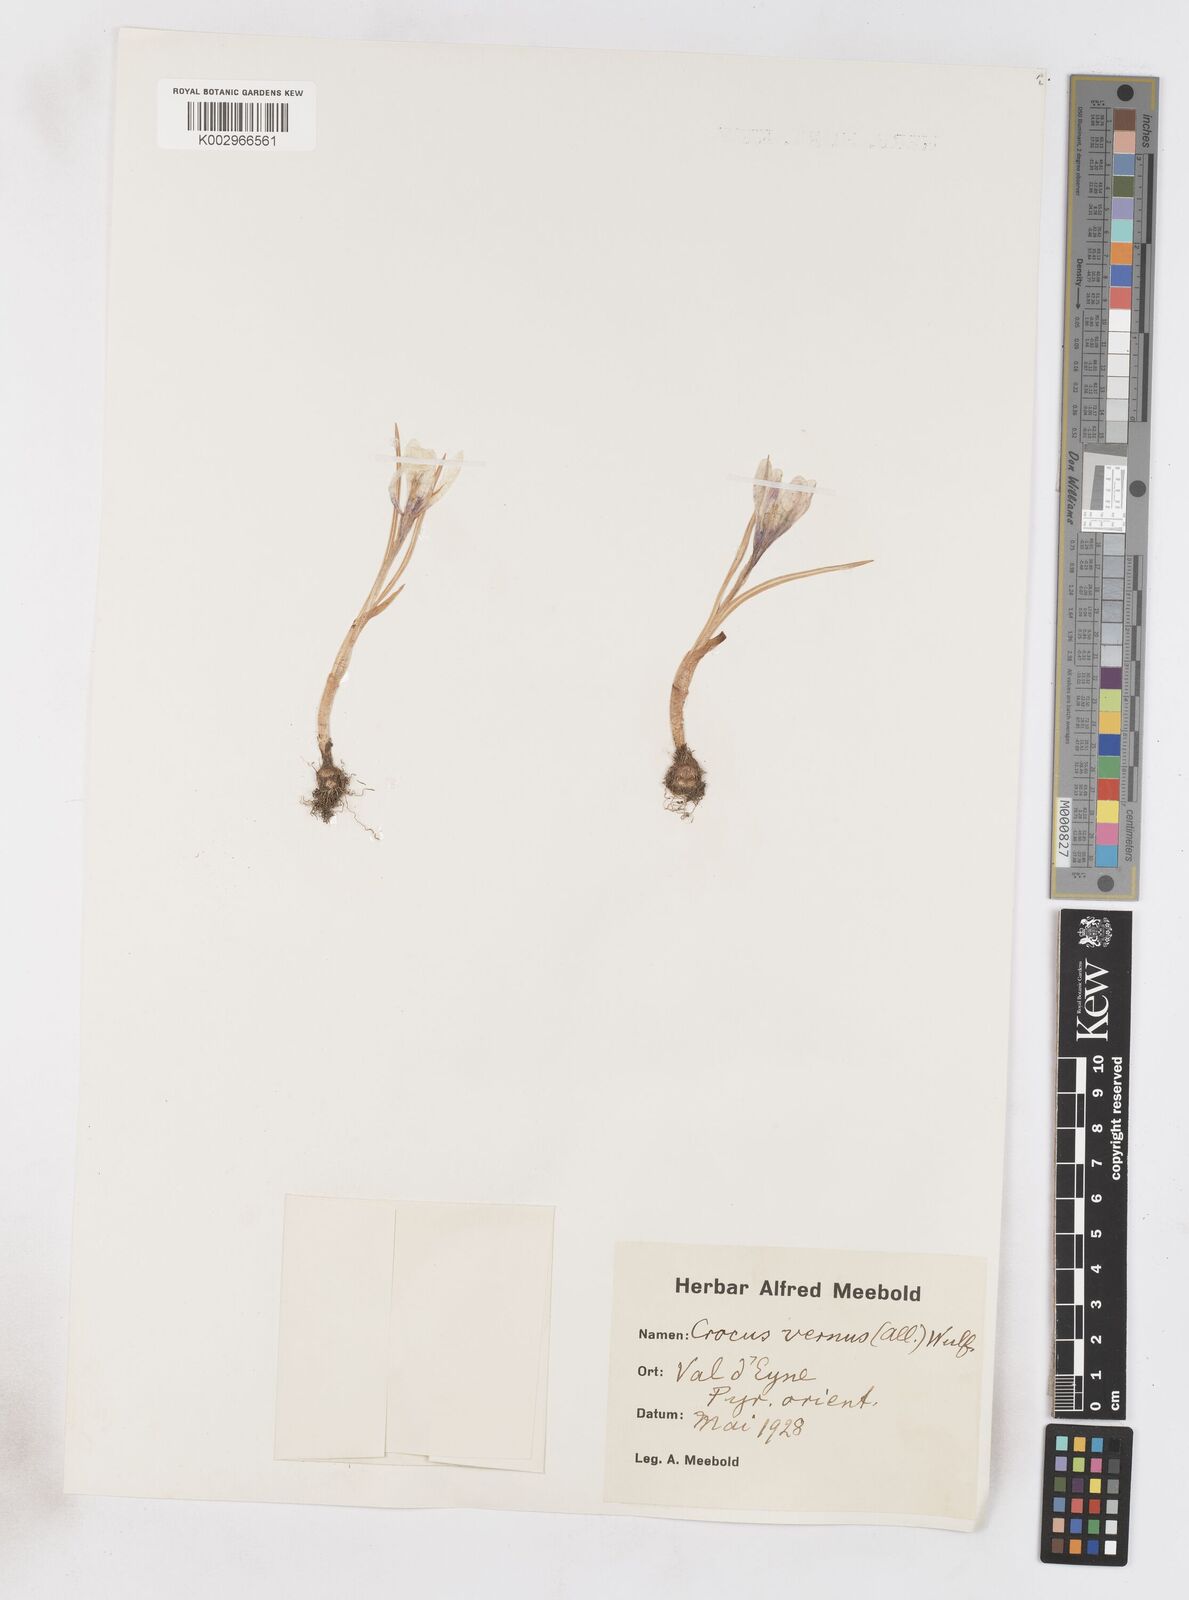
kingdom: Plantae
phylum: Tracheophyta
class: Liliopsida
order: Asparagales
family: Iridaceae
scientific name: Iridaceae
